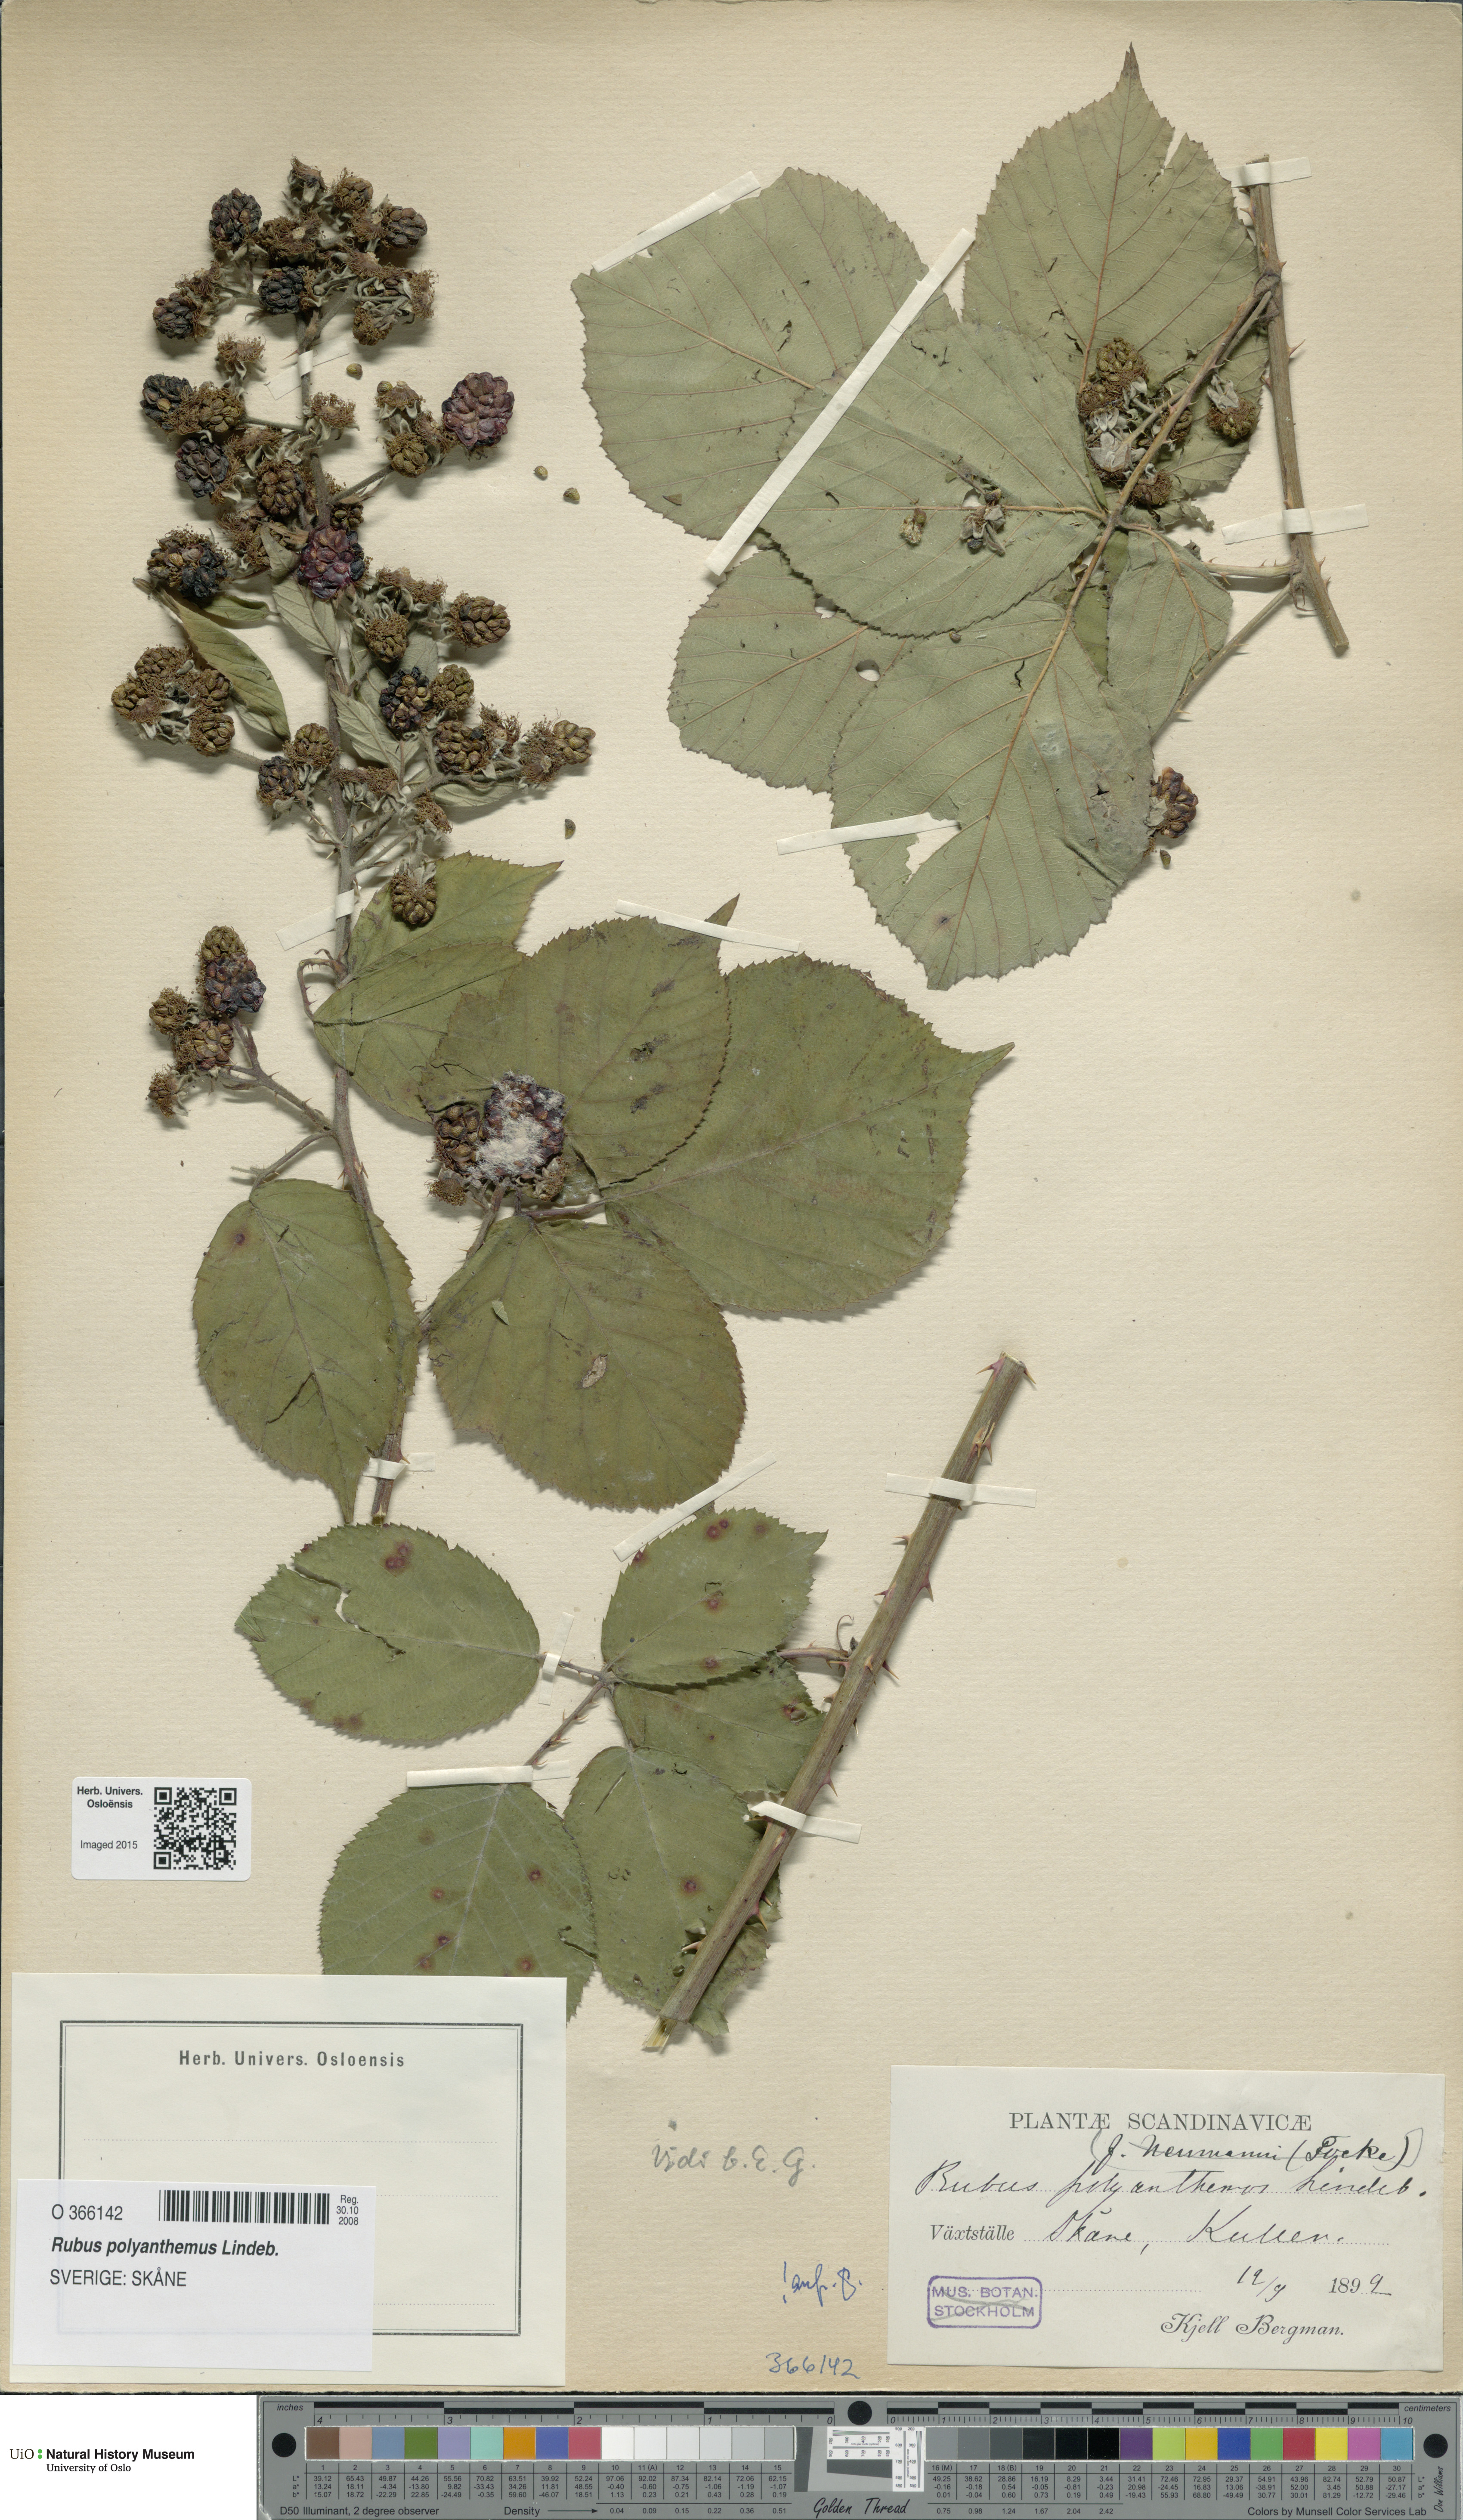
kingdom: Plantae
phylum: Tracheophyta
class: Magnoliopsida
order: Rosales
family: Rosaceae
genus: Rubus
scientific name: Rubus polyanthemus
